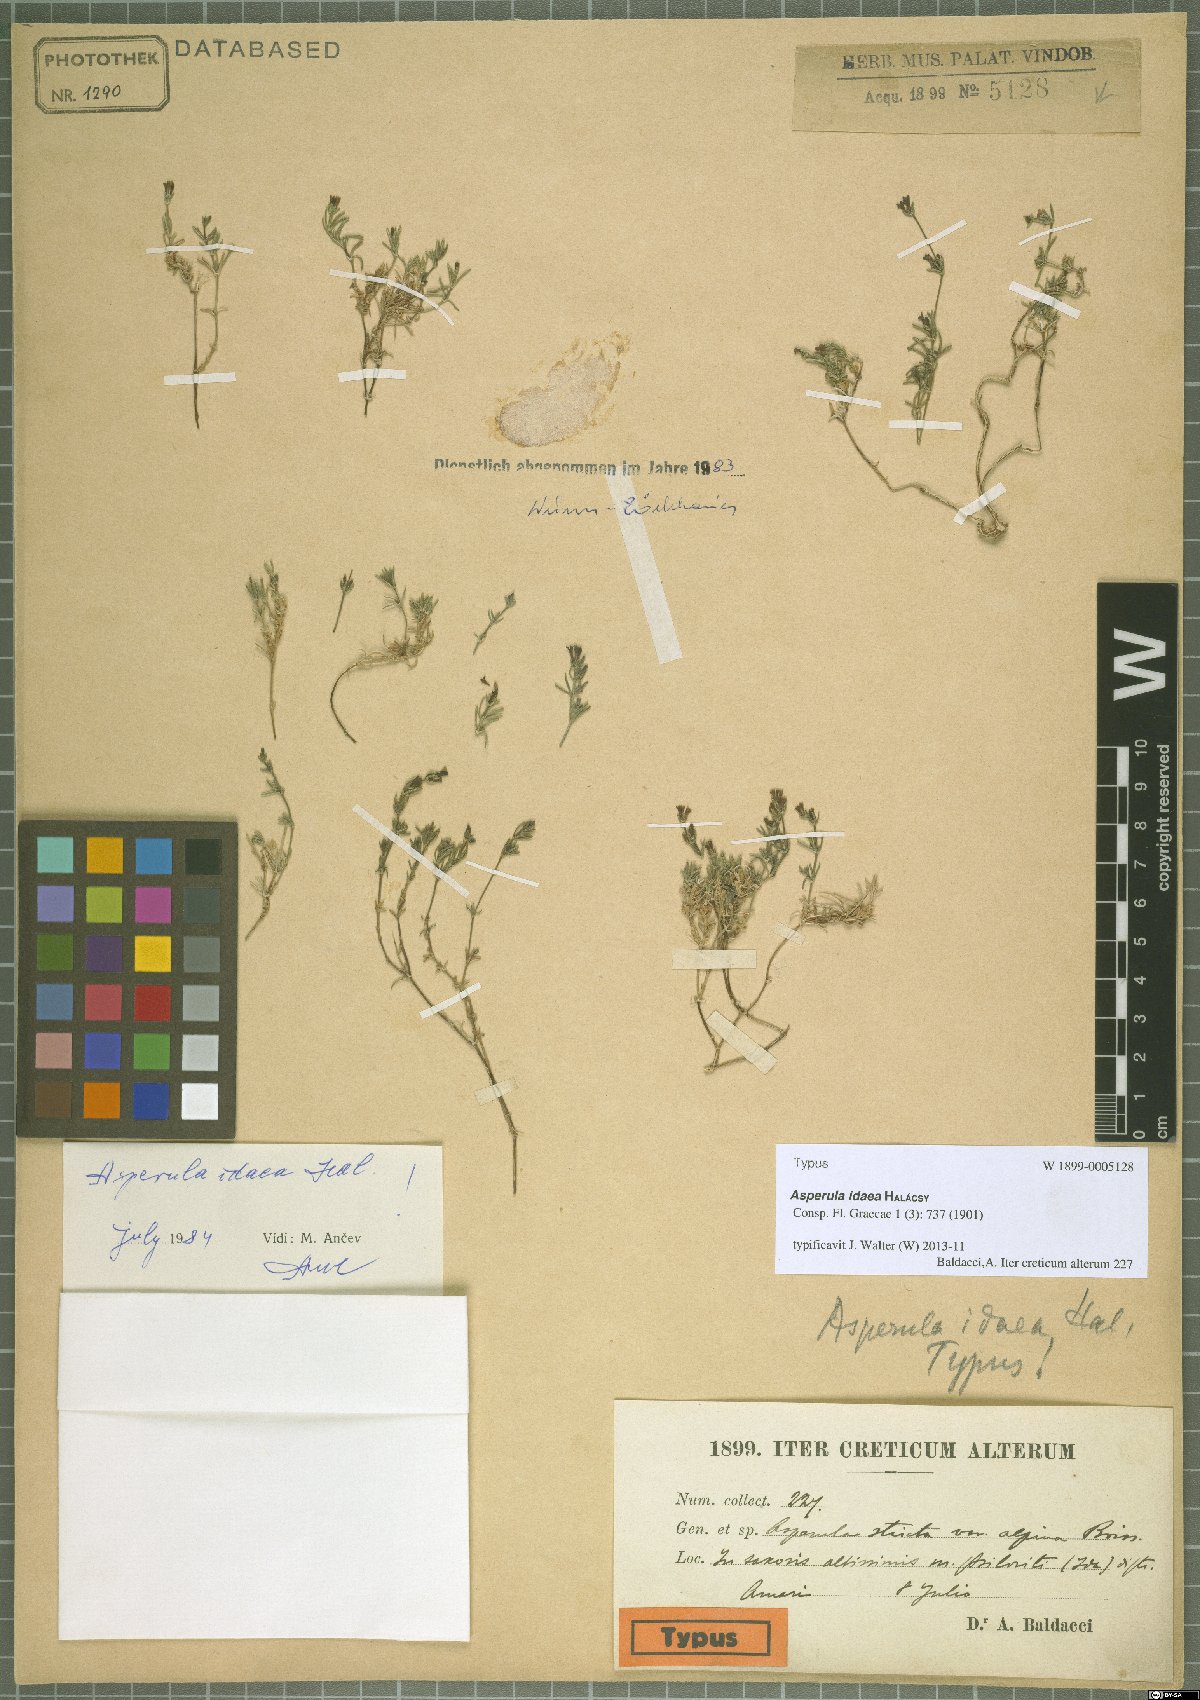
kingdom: Plantae
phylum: Tracheophyta
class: Magnoliopsida
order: Gentianales
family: Rubiaceae
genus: Cynanchica
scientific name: Cynanchica idaea
